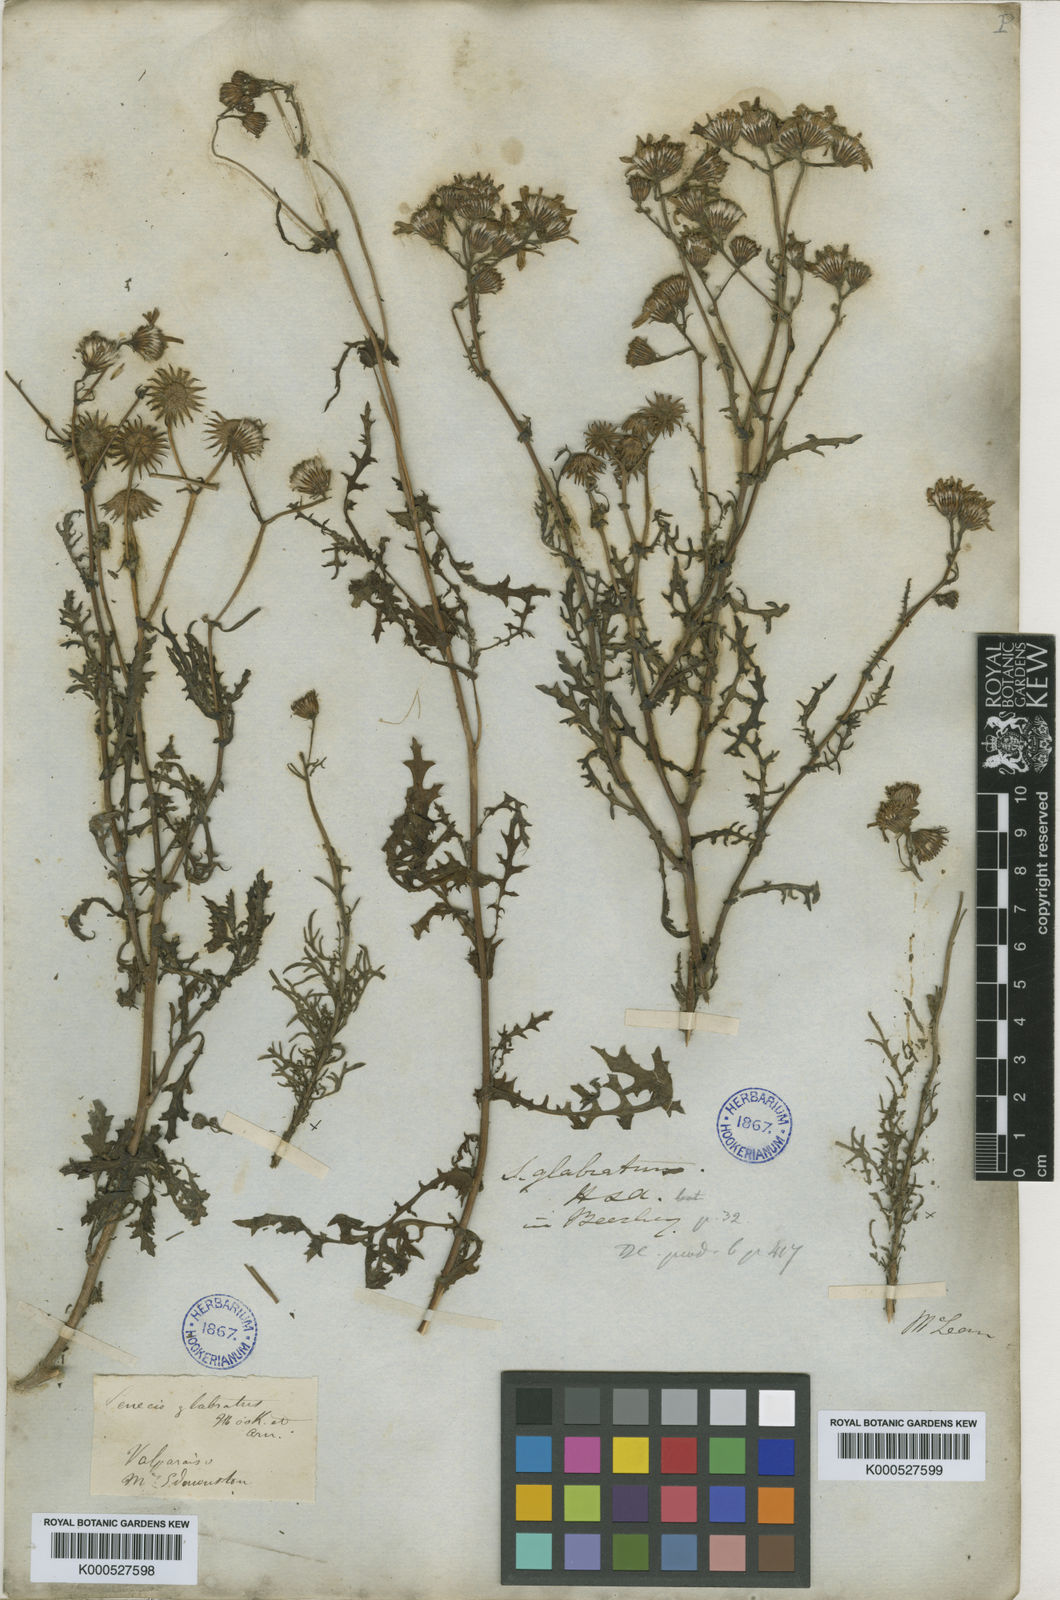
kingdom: Plantae
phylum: Tracheophyta
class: Magnoliopsida
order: Asterales
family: Asteraceae
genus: Senecio
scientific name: Senecio glabratus
